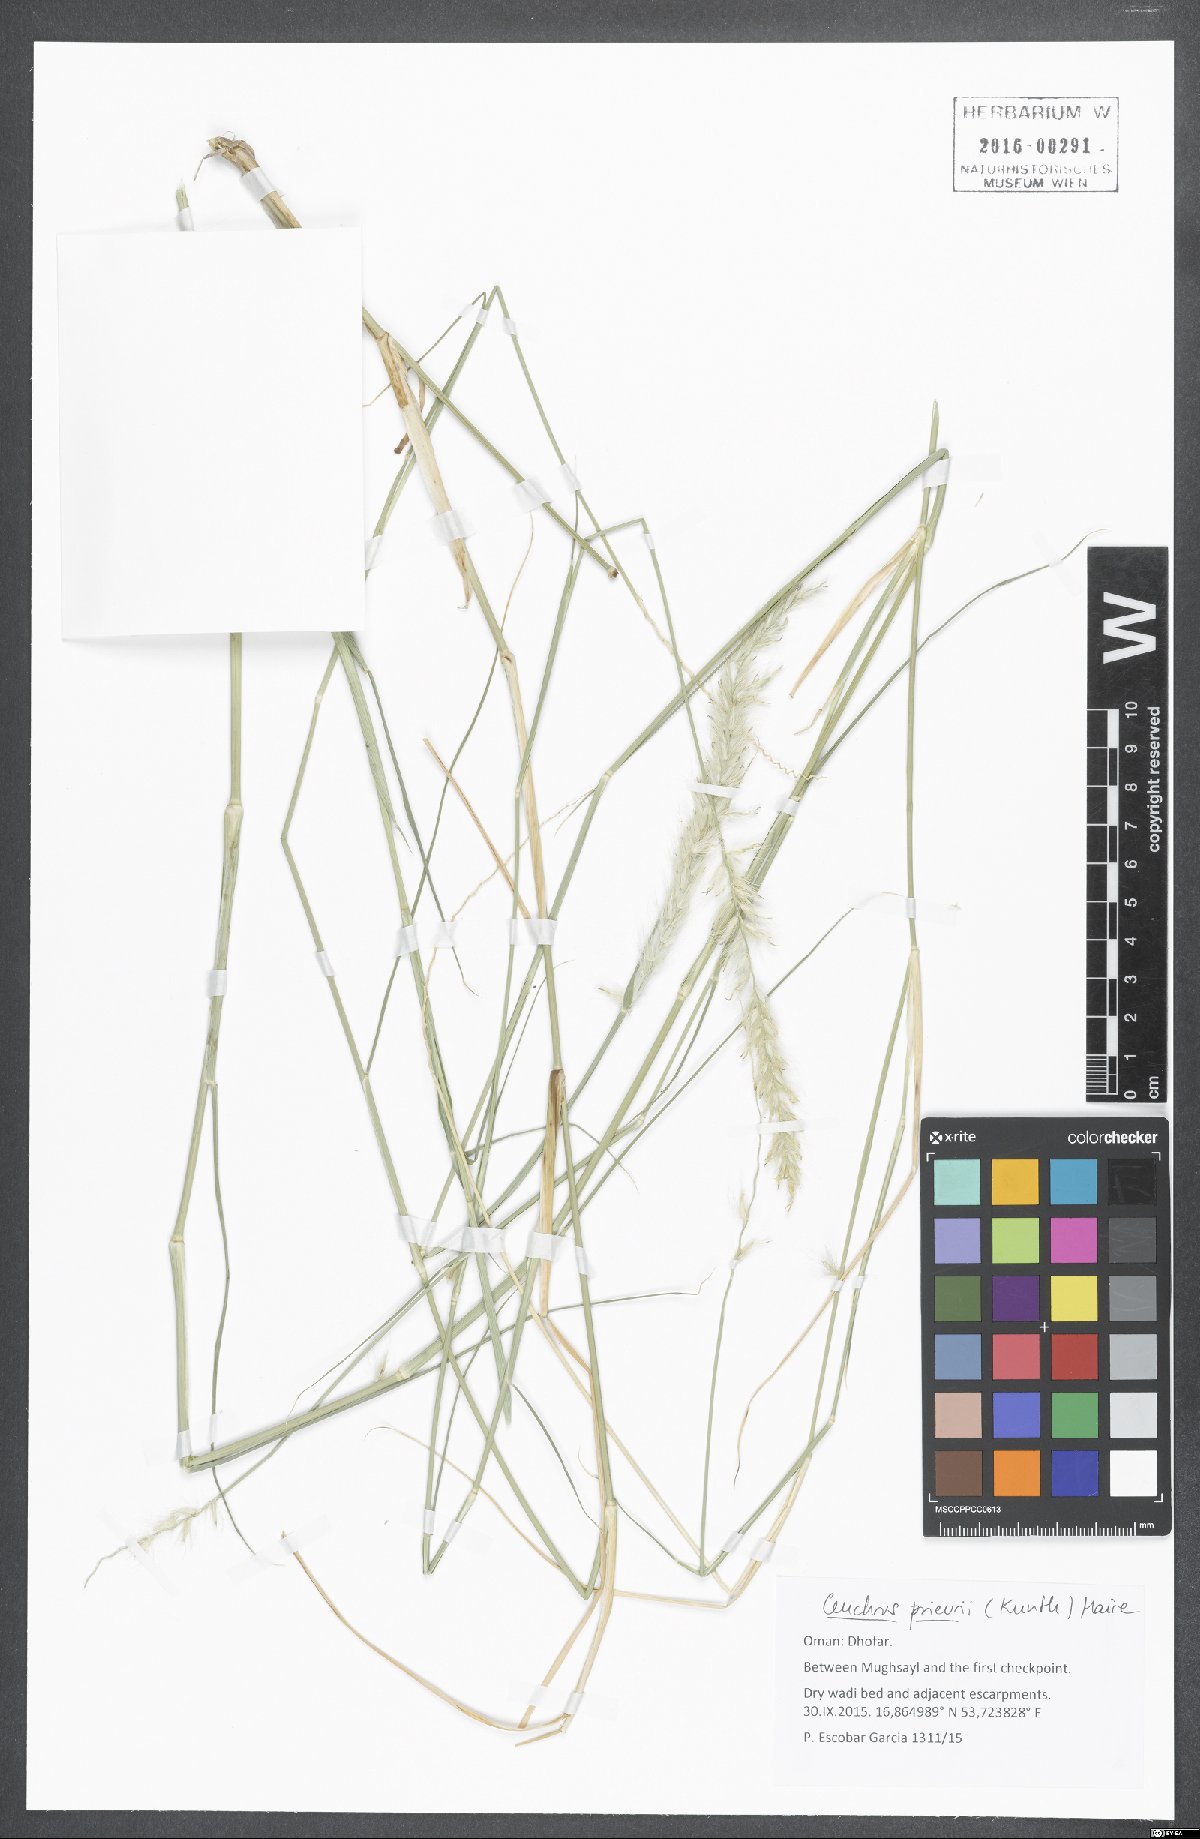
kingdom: Plantae
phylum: Tracheophyta
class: Liliopsida
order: Poales
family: Poaceae
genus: Cenchrus
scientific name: Cenchrus prieurii
